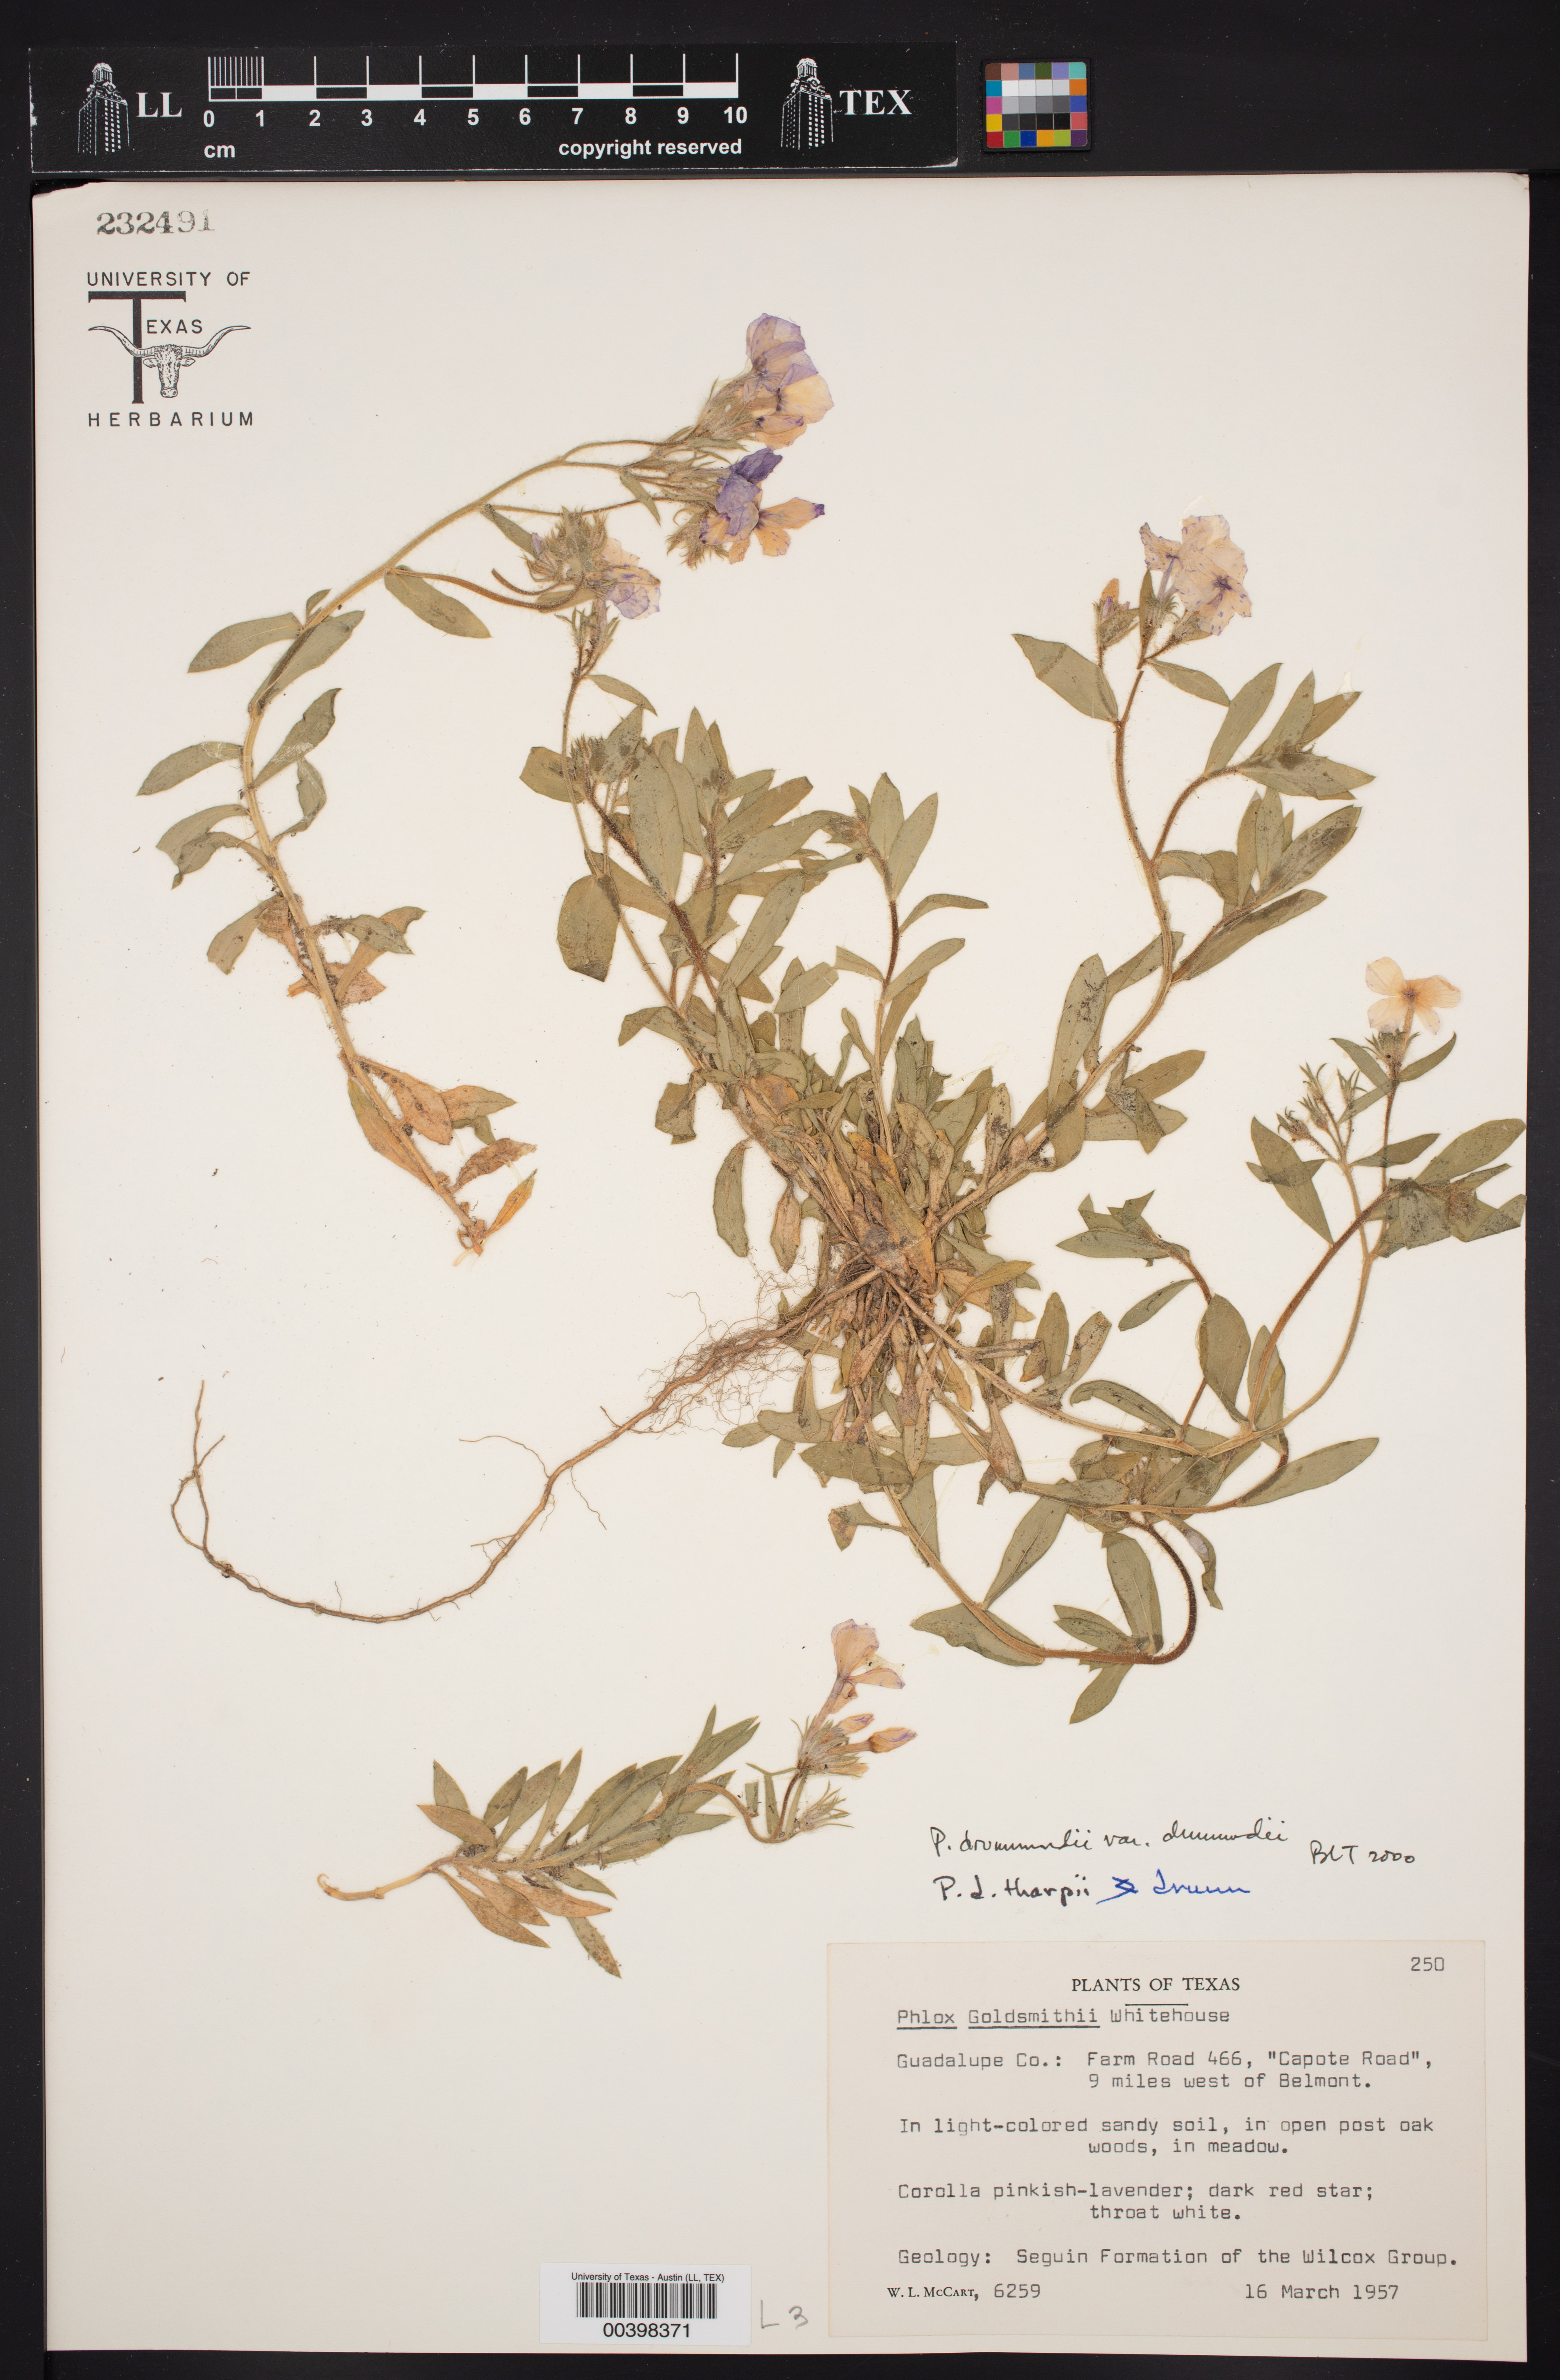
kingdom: Plantae
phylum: Tracheophyta
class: Magnoliopsida
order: Ericales
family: Polemoniaceae
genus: Phlox
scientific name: Phlox drummondii
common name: Drummond's phlox
